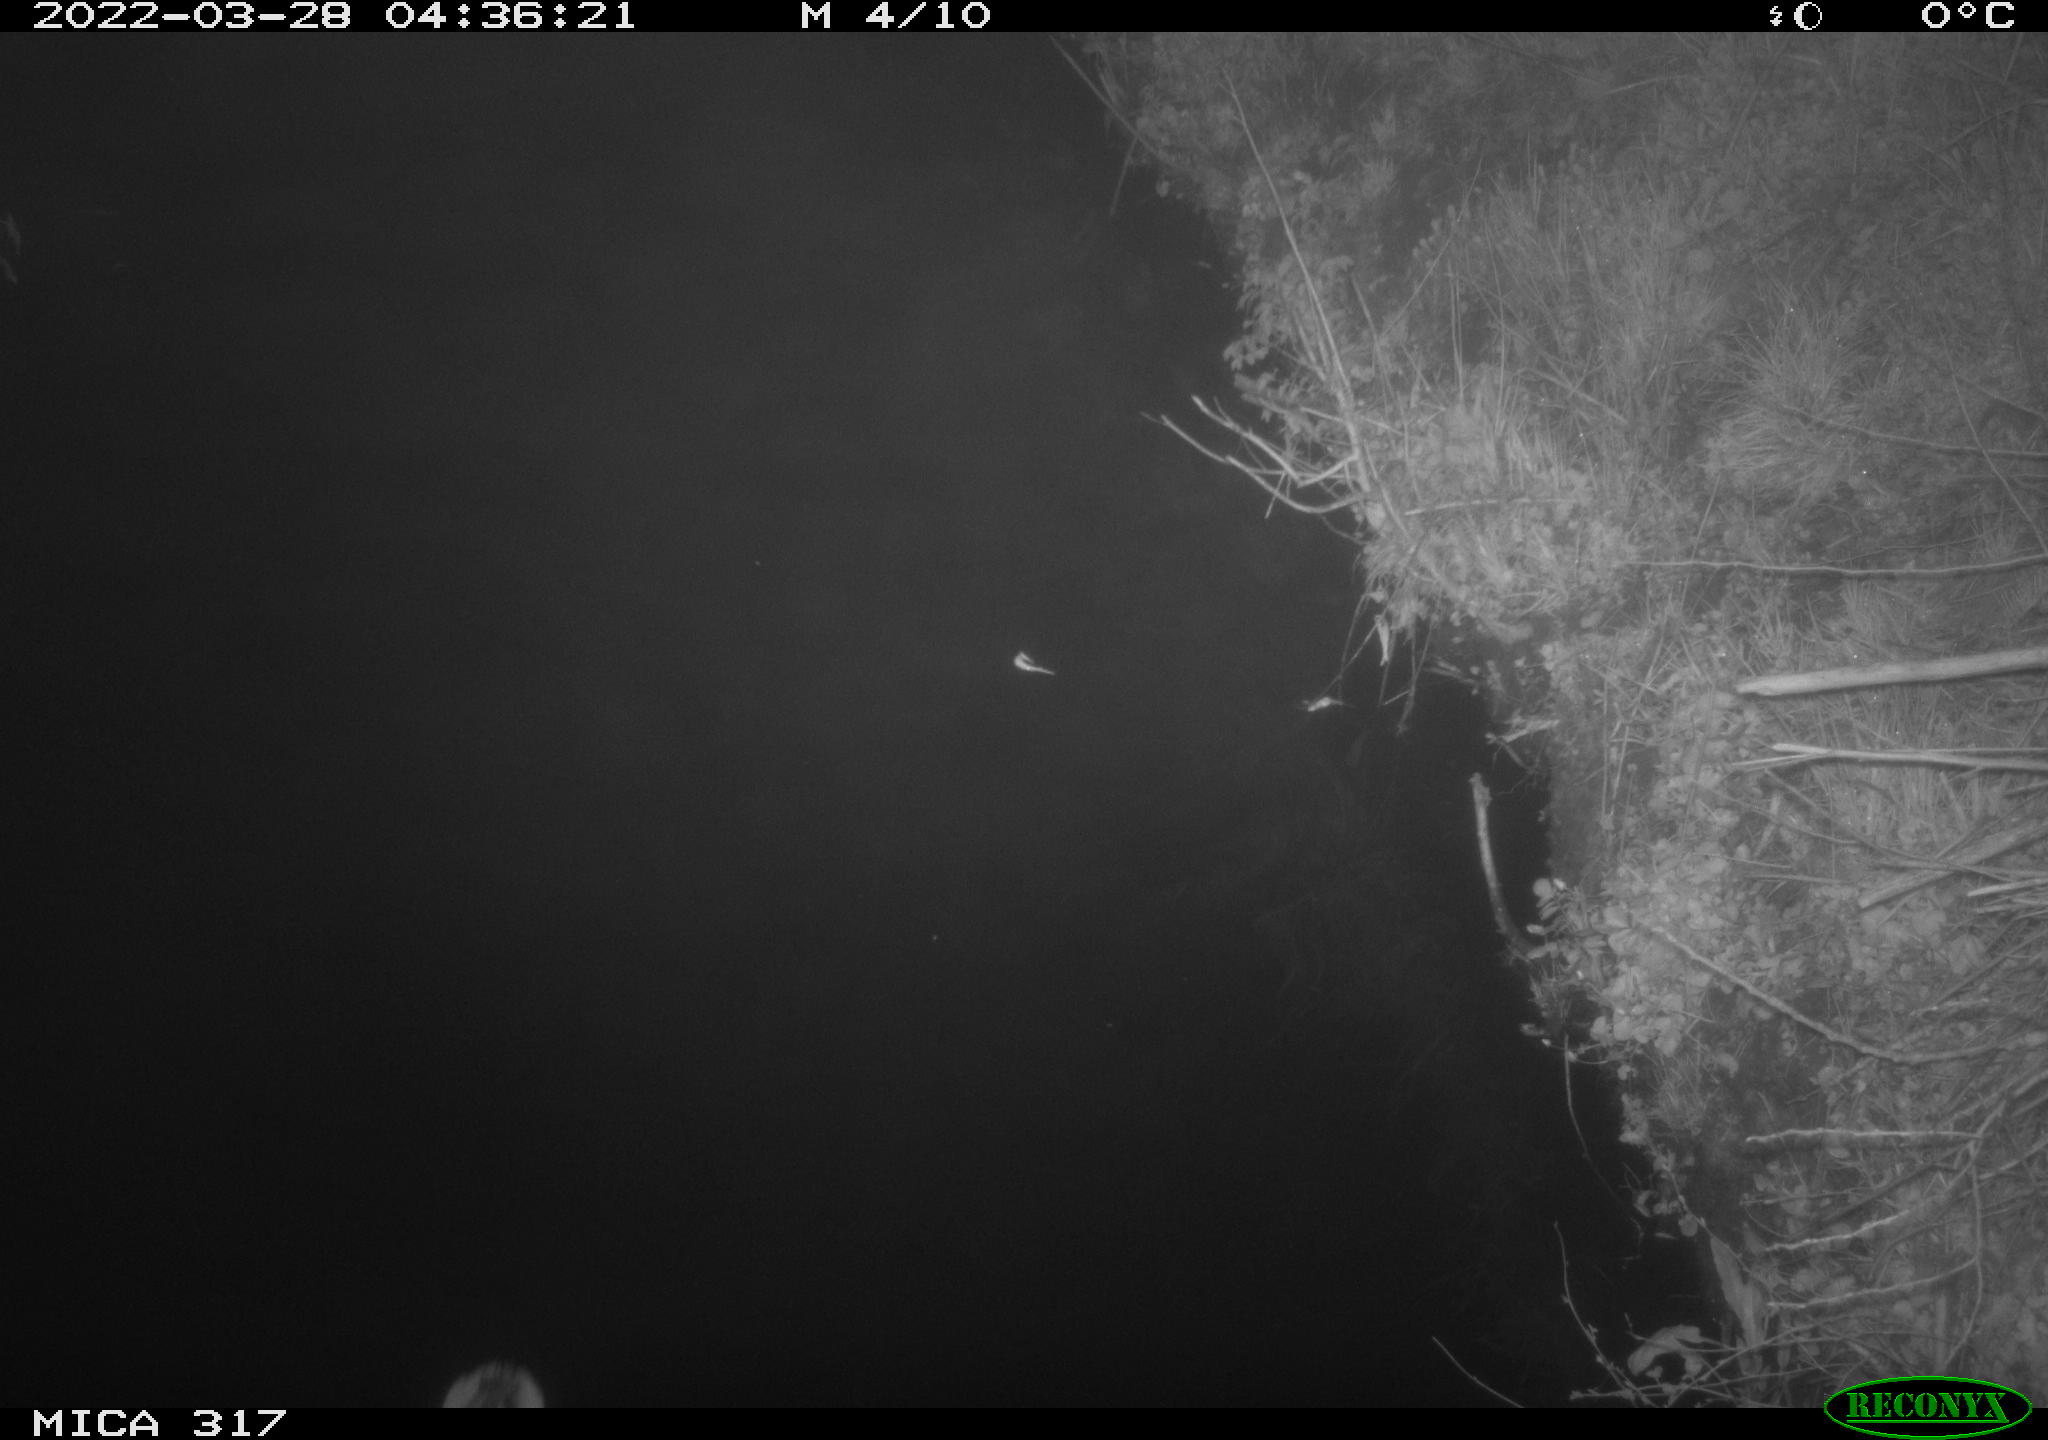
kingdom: Animalia
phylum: Chordata
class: Aves
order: Anseriformes
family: Anatidae
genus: Anas
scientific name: Anas platyrhynchos
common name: Mallard
